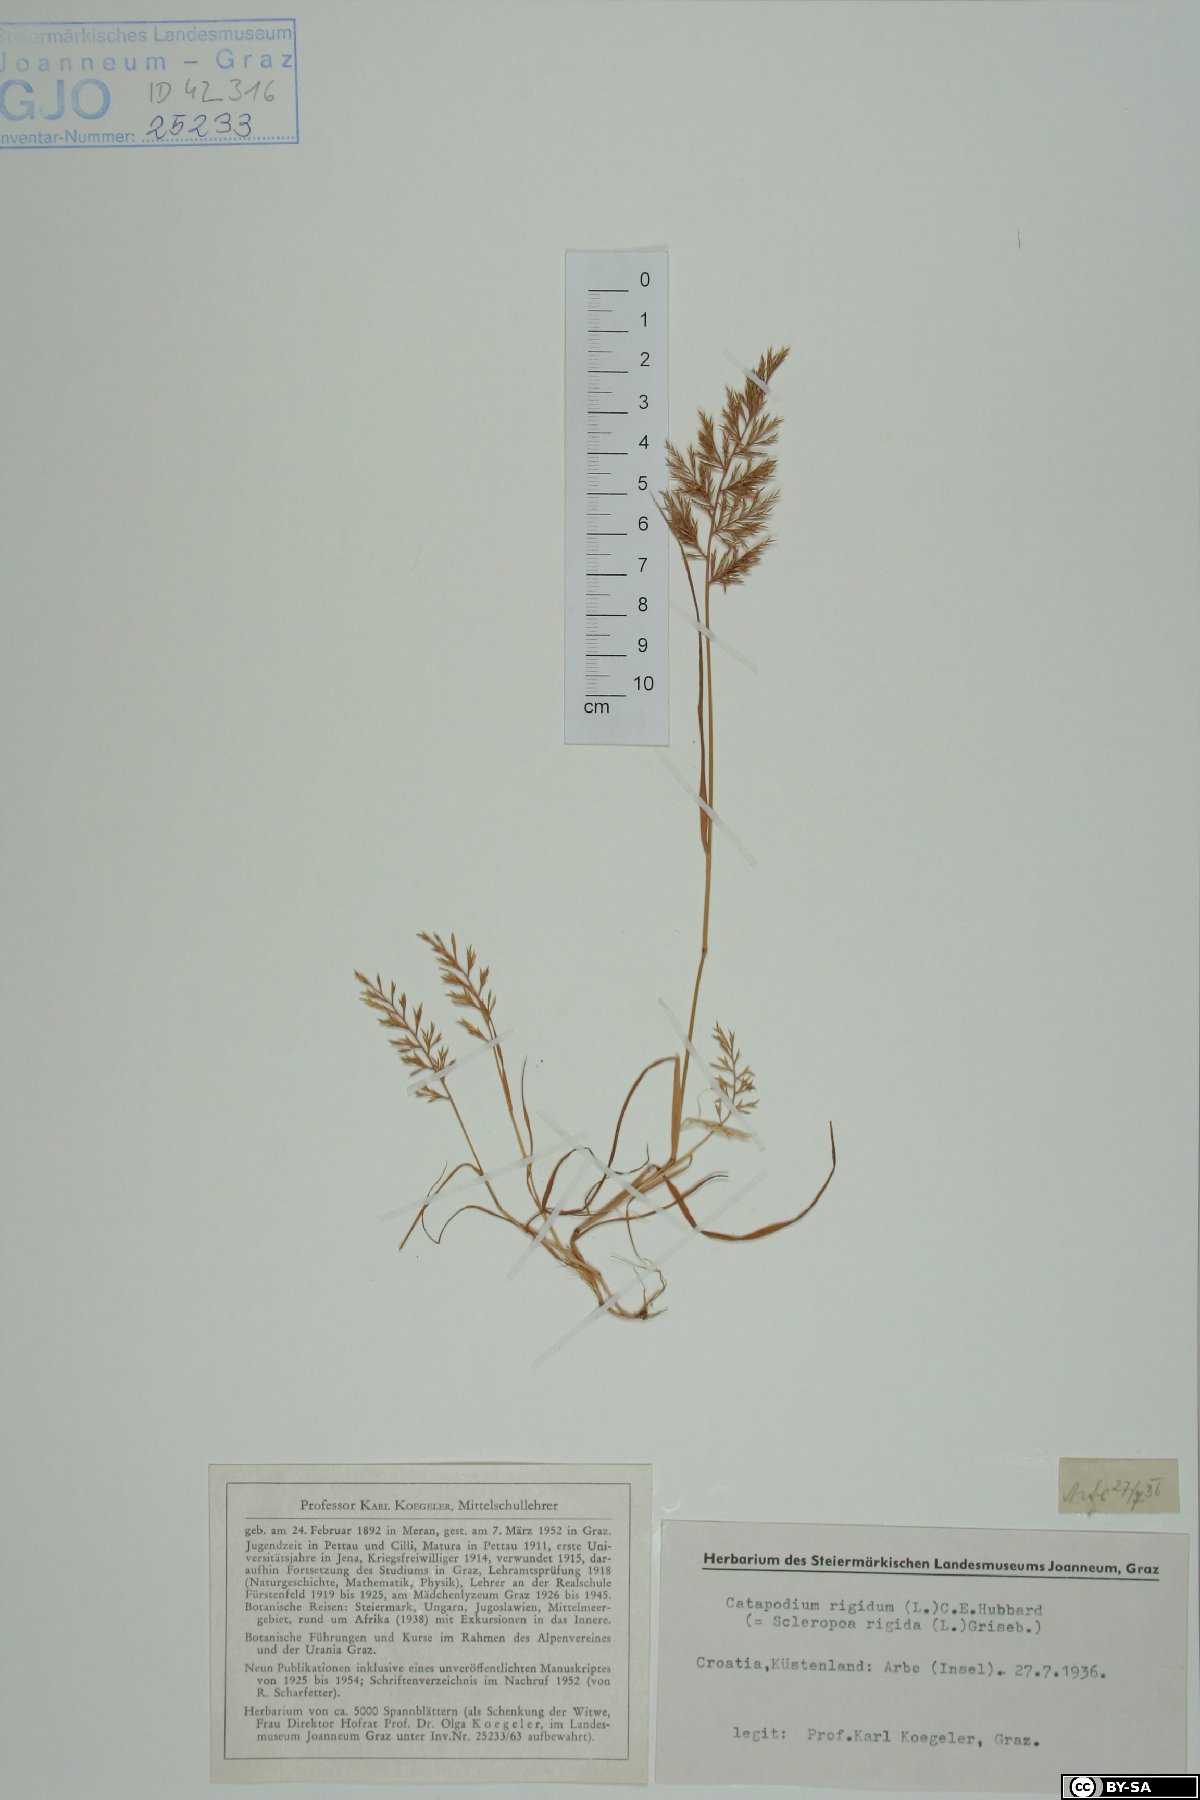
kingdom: Plantae
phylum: Tracheophyta
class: Liliopsida
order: Poales
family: Poaceae
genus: Catapodium
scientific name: Catapodium rigidum
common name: Fern-grass
